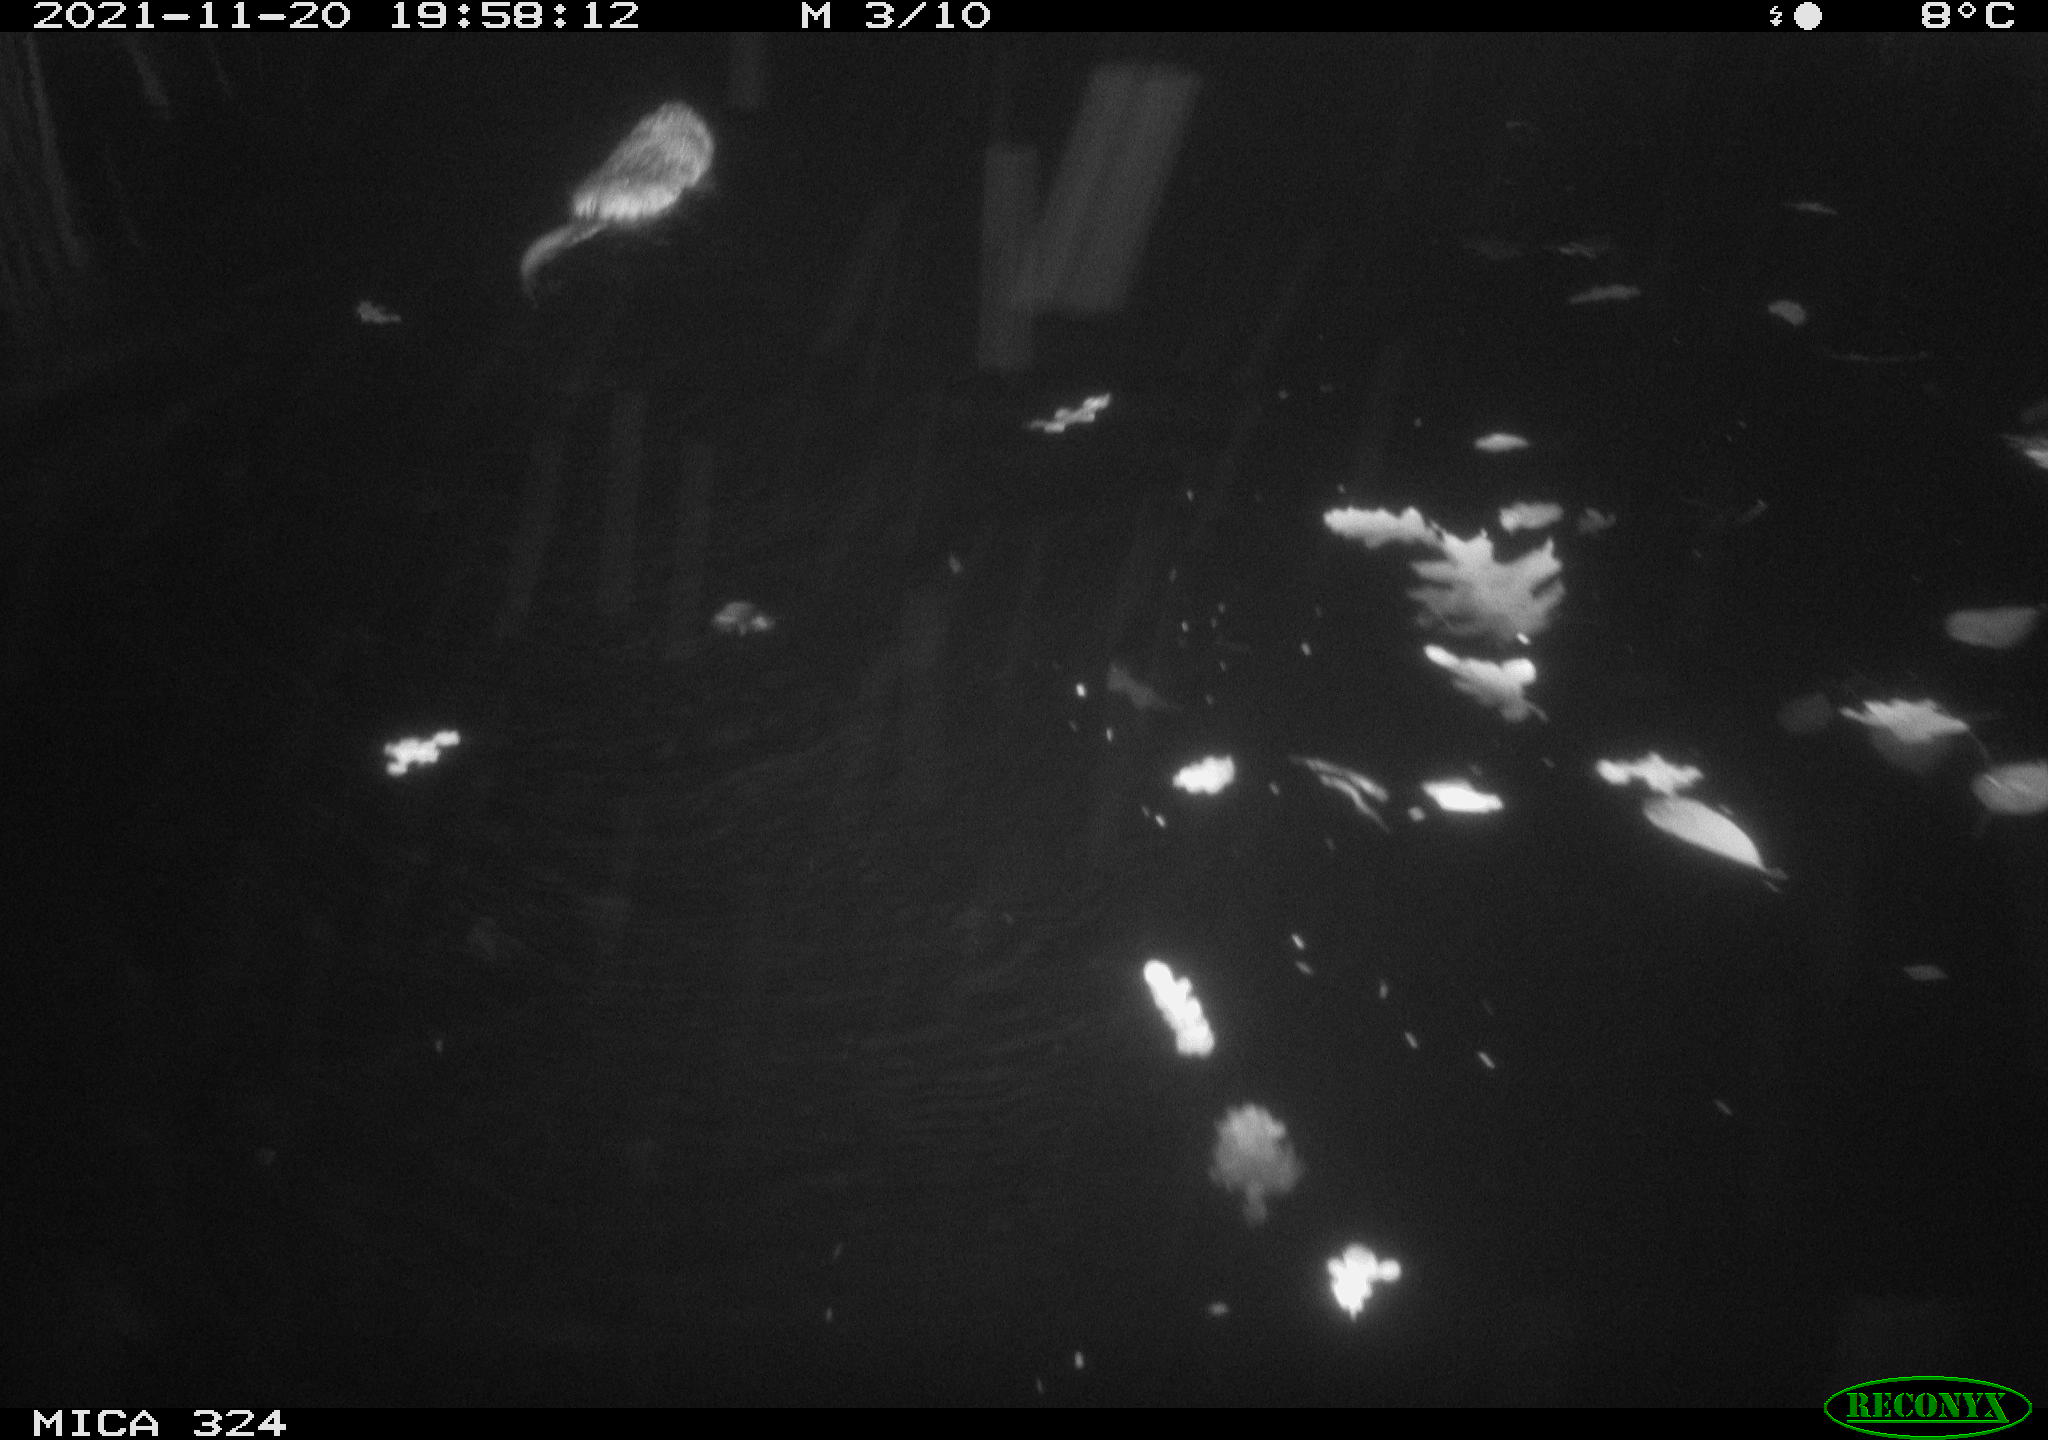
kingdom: Animalia
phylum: Chordata
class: Mammalia
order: Rodentia
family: Cricetidae
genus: Ondatra
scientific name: Ondatra zibethicus
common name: Muskrat
